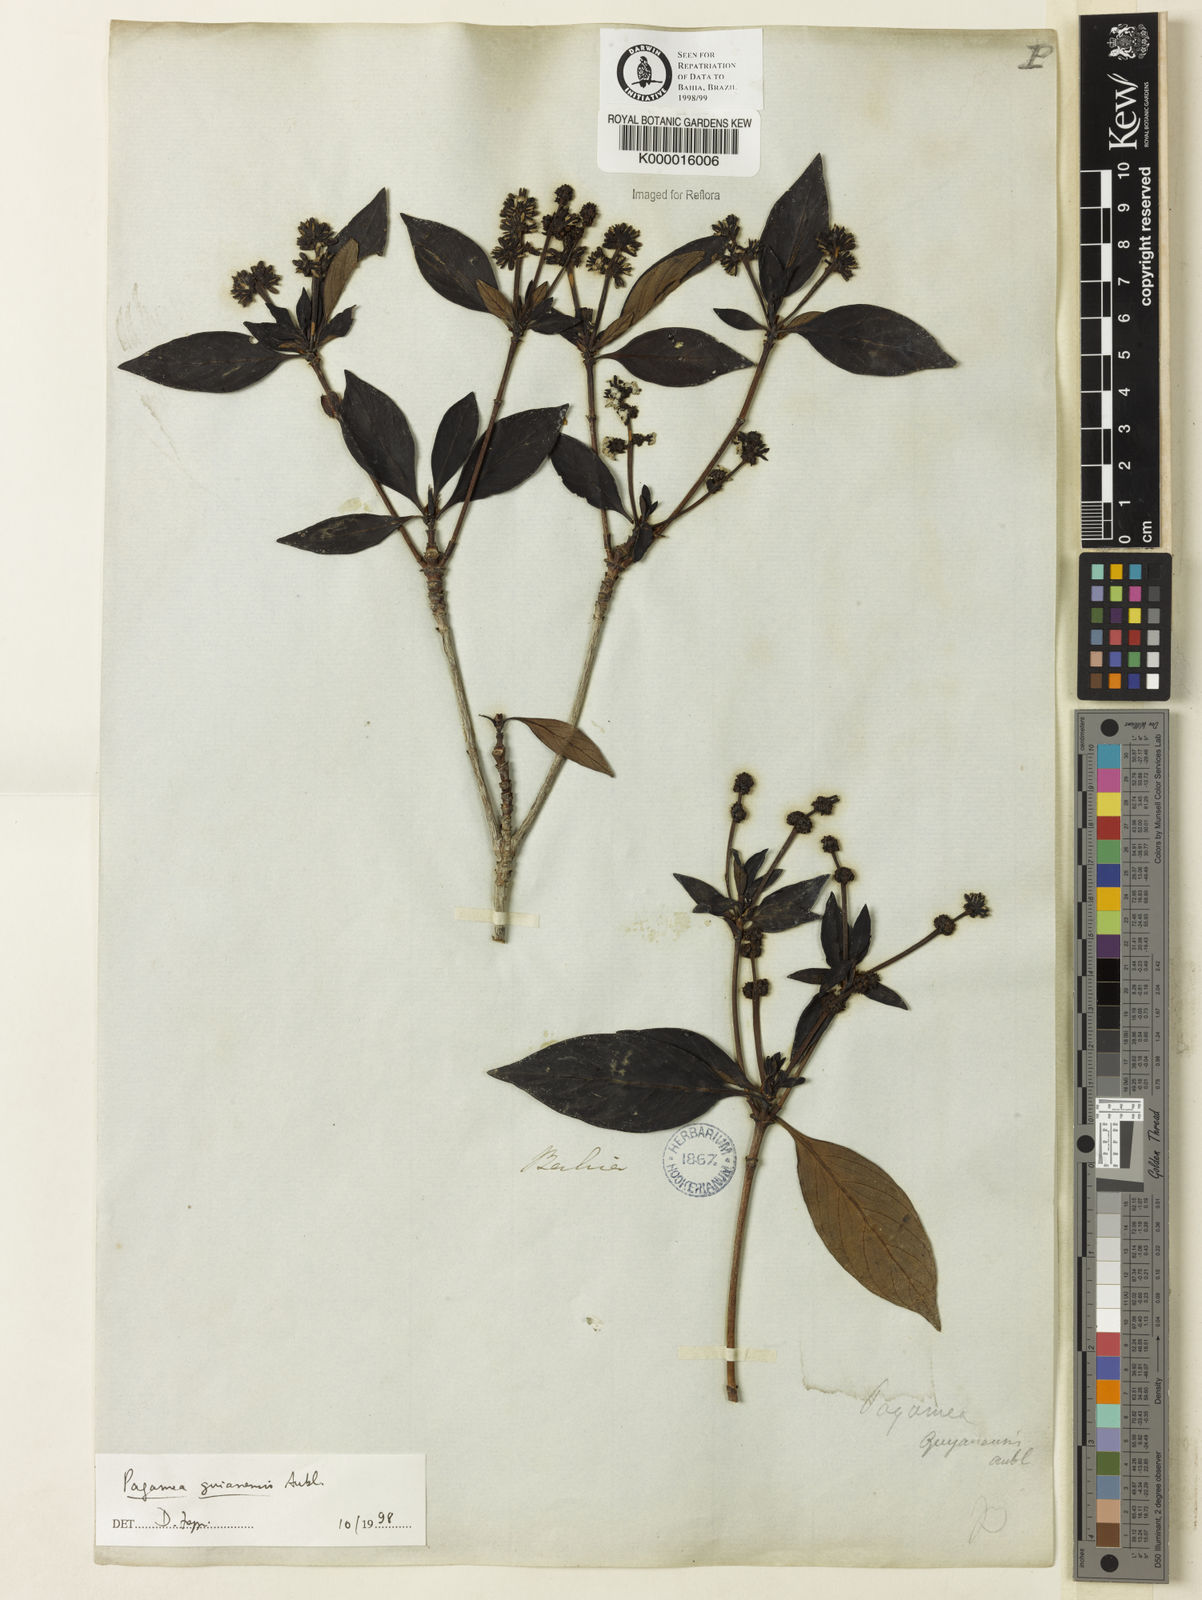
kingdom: Plantae
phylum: Tracheophyta
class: Magnoliopsida
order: Gentianales
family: Rubiaceae
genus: Pagamea
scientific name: Pagamea guianensis
